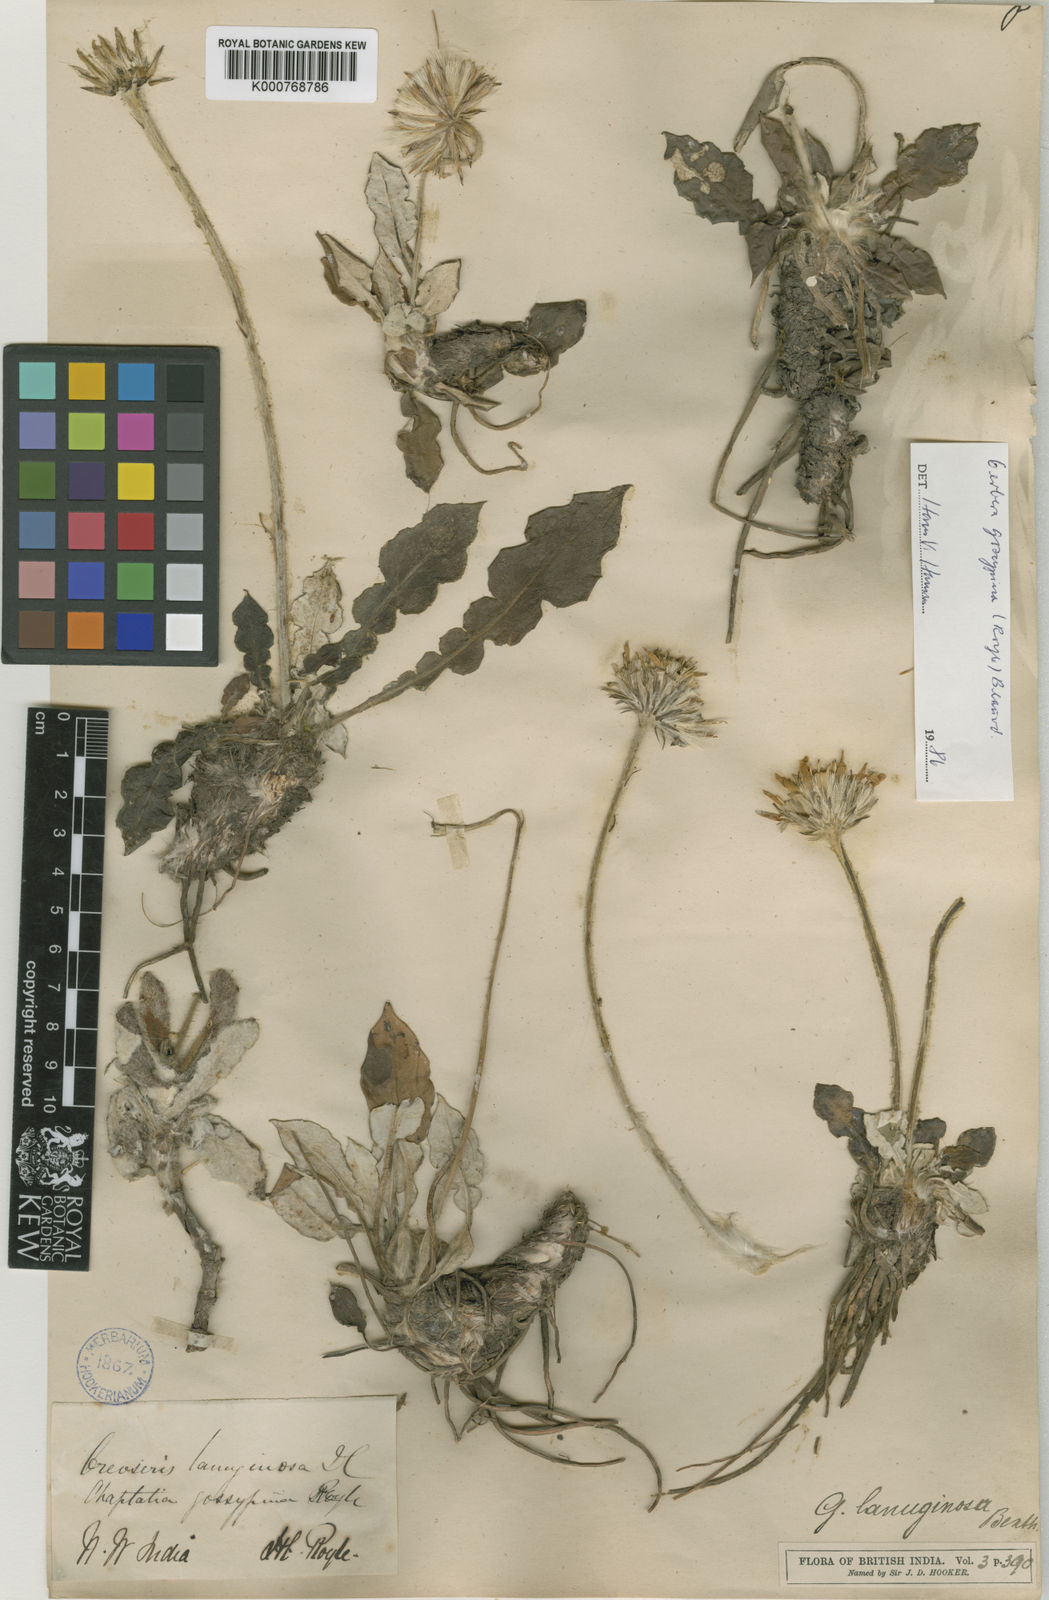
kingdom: Plantae
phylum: Tracheophyta
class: Magnoliopsida
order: Asterales
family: Asteraceae
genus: Oreoseris
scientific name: Oreoseris gossypina
